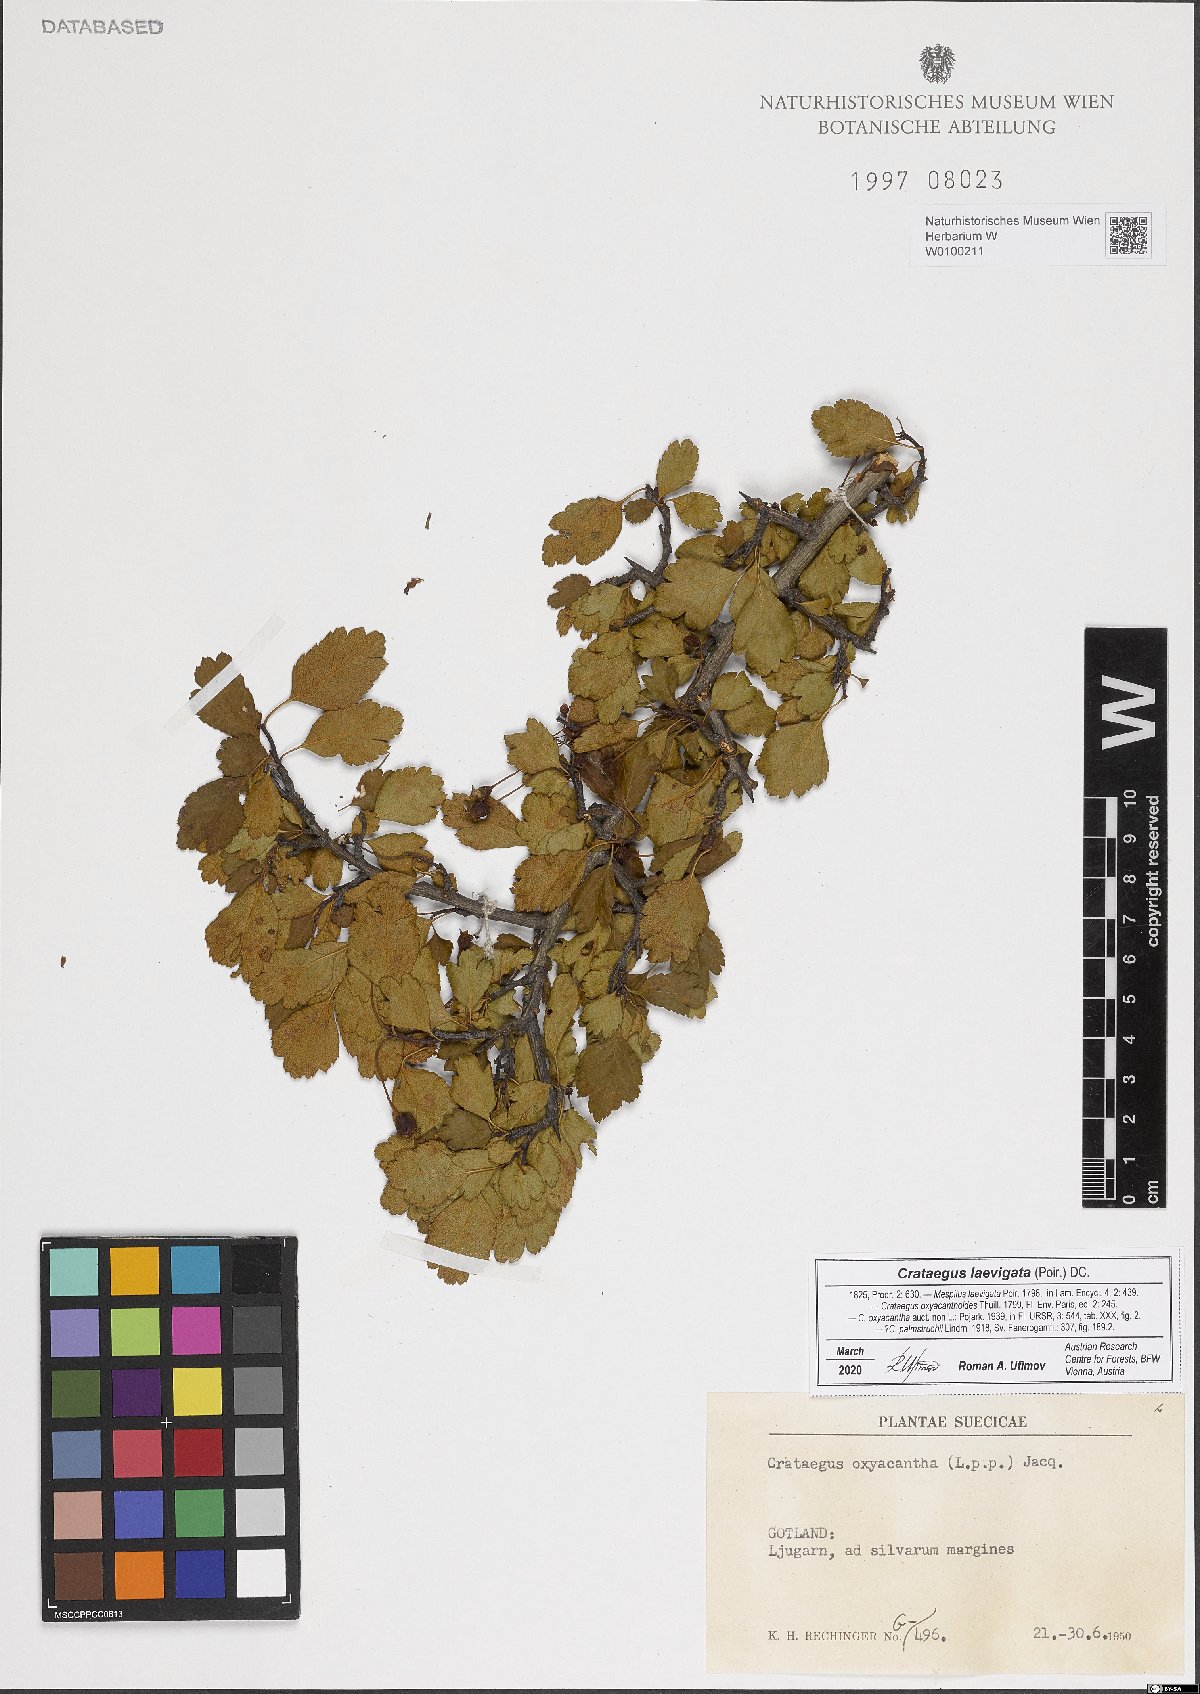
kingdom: Plantae
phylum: Tracheophyta
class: Magnoliopsida
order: Rosales
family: Rosaceae
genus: Crataegus
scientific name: Crataegus laevigata
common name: Midland hawthorn
